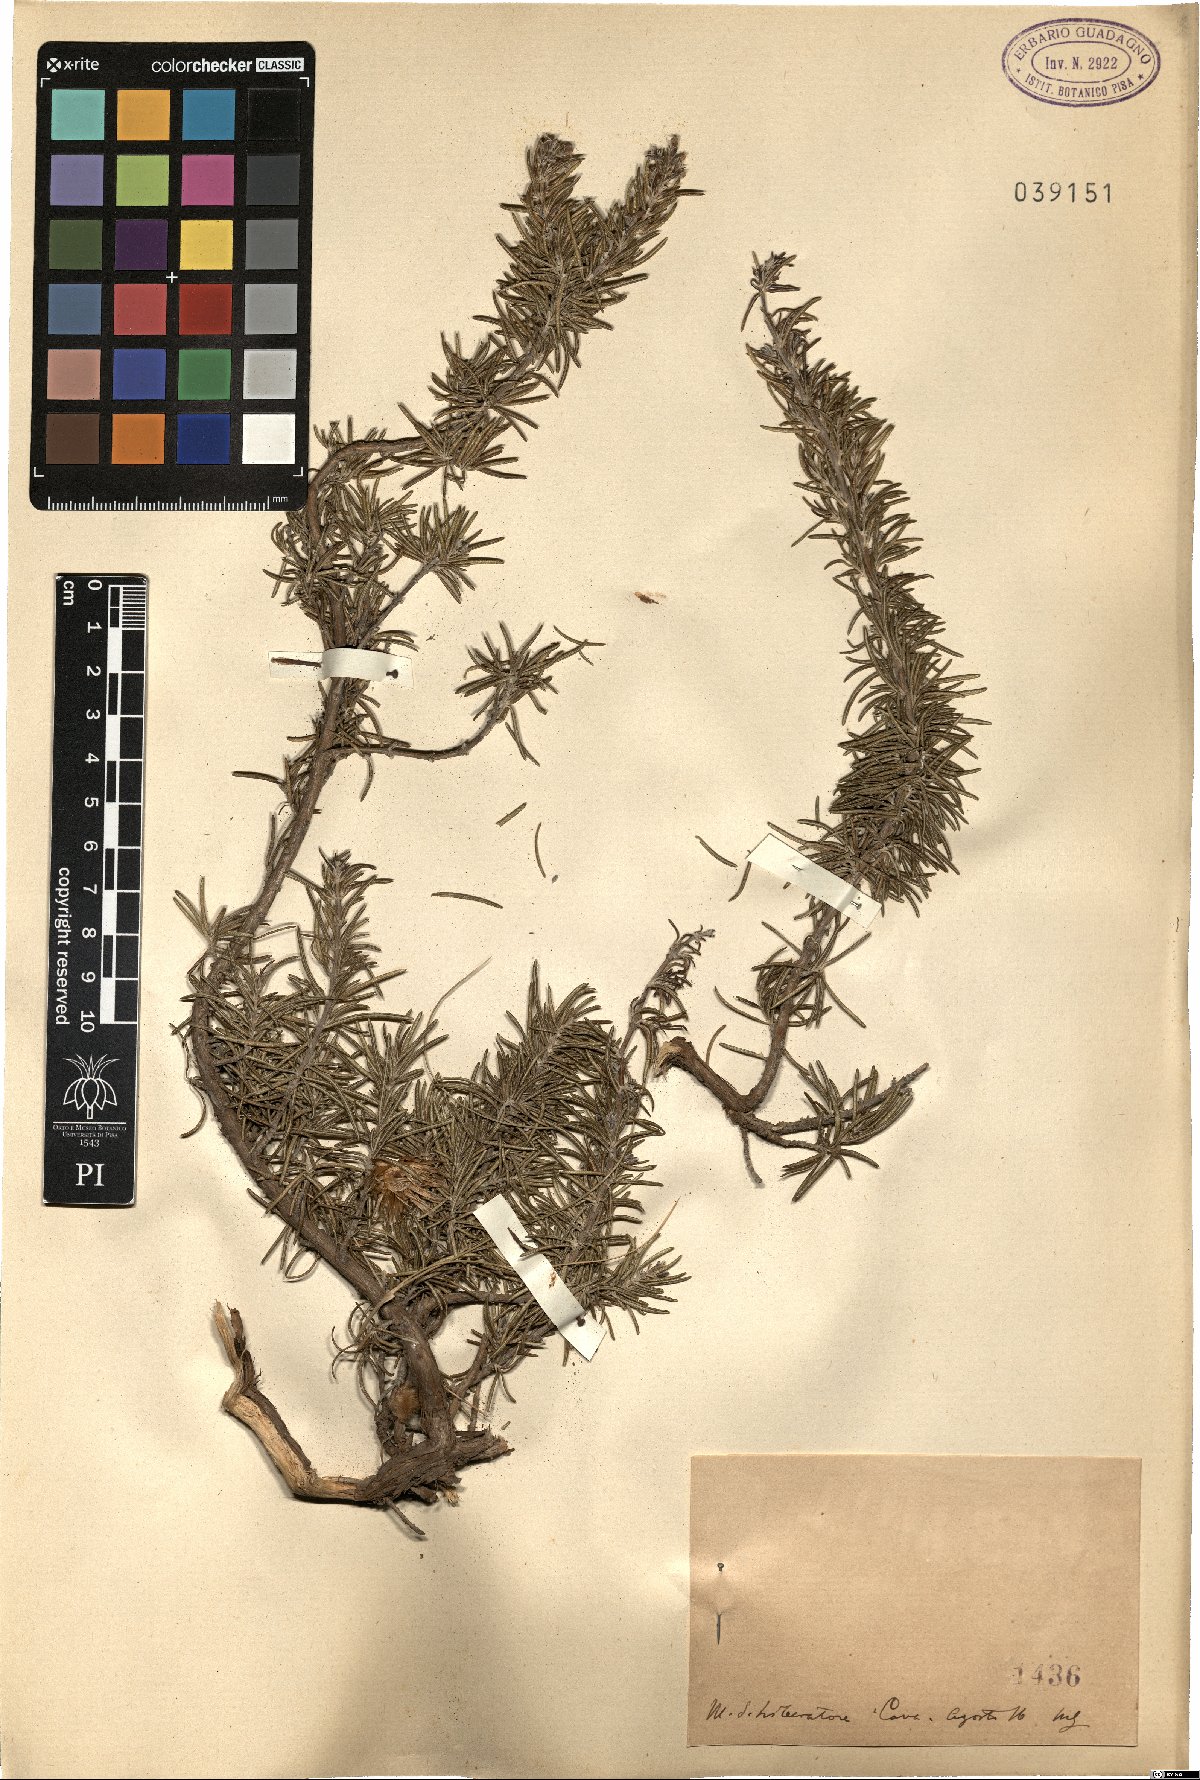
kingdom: Plantae
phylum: Tracheophyta
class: Magnoliopsida
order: Lamiales
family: Lamiaceae
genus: Salvia
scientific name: Salvia
